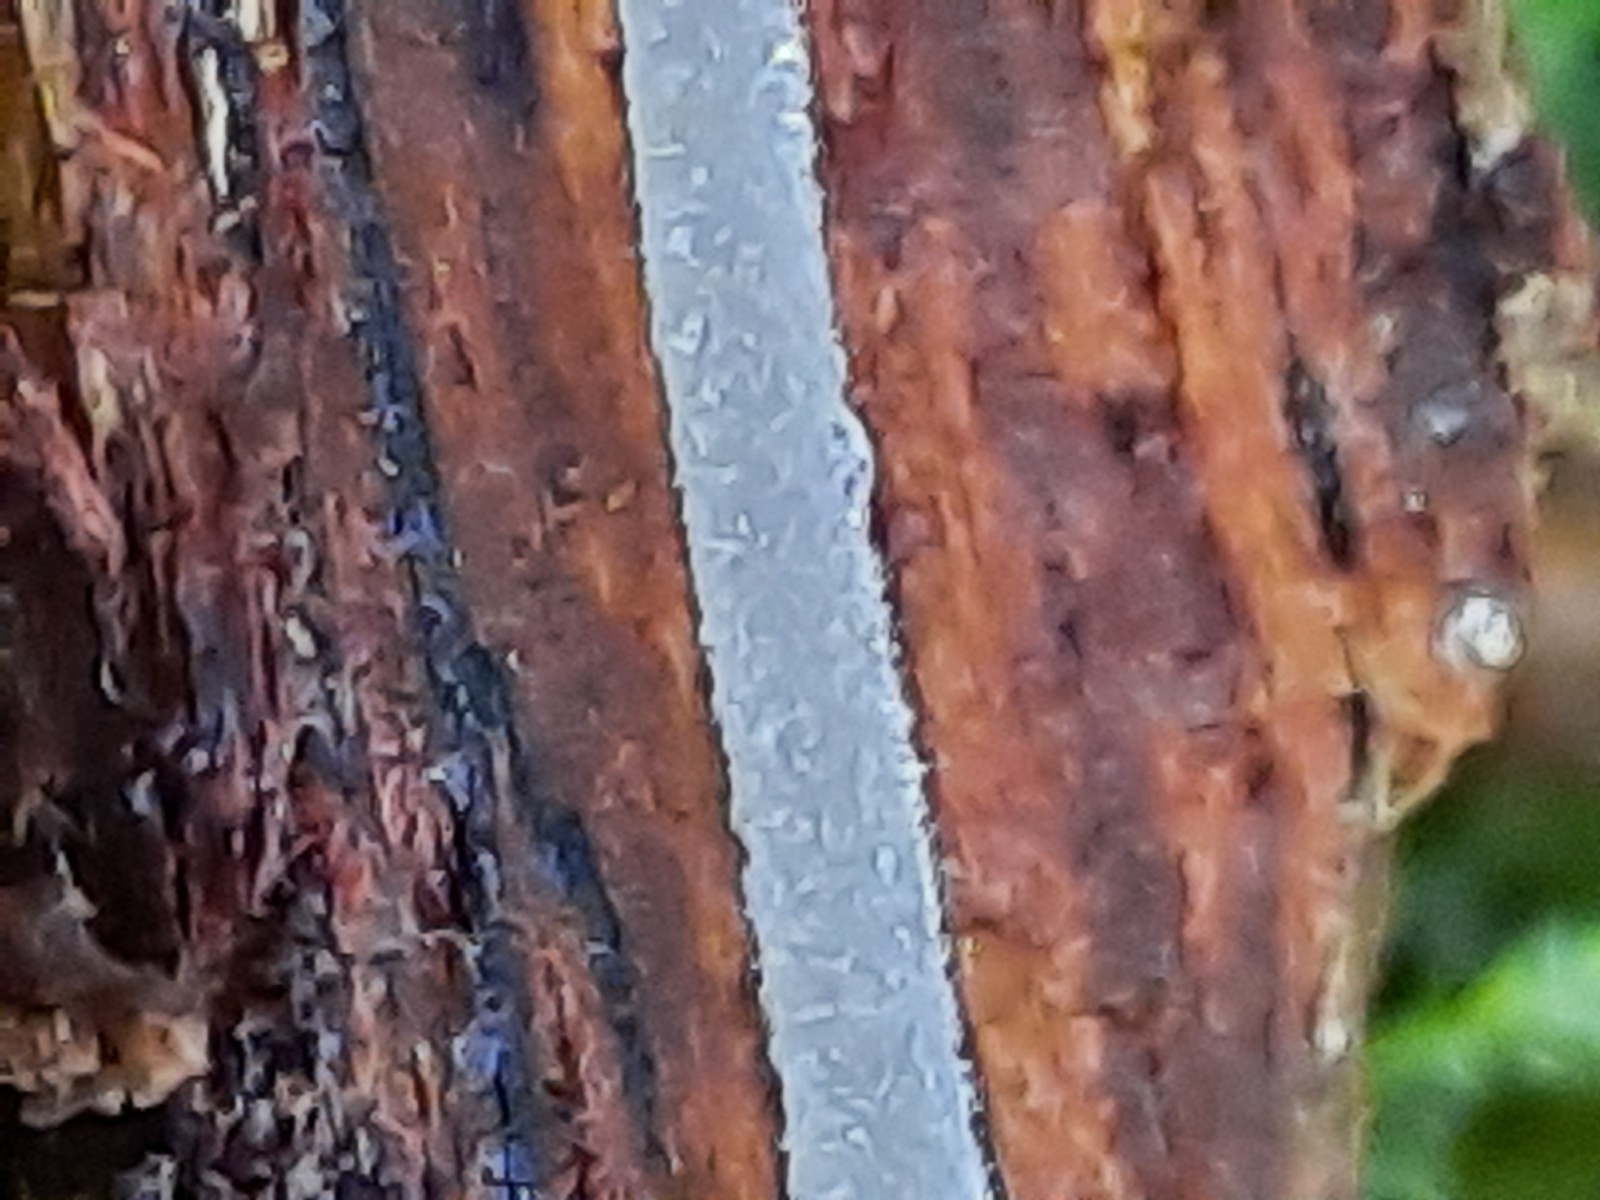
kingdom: Fungi
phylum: Basidiomycota
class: Agaricomycetes
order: Agaricales
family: Mycenaceae
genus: Mycena
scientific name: Mycena amicta
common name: iris-huesvamp
